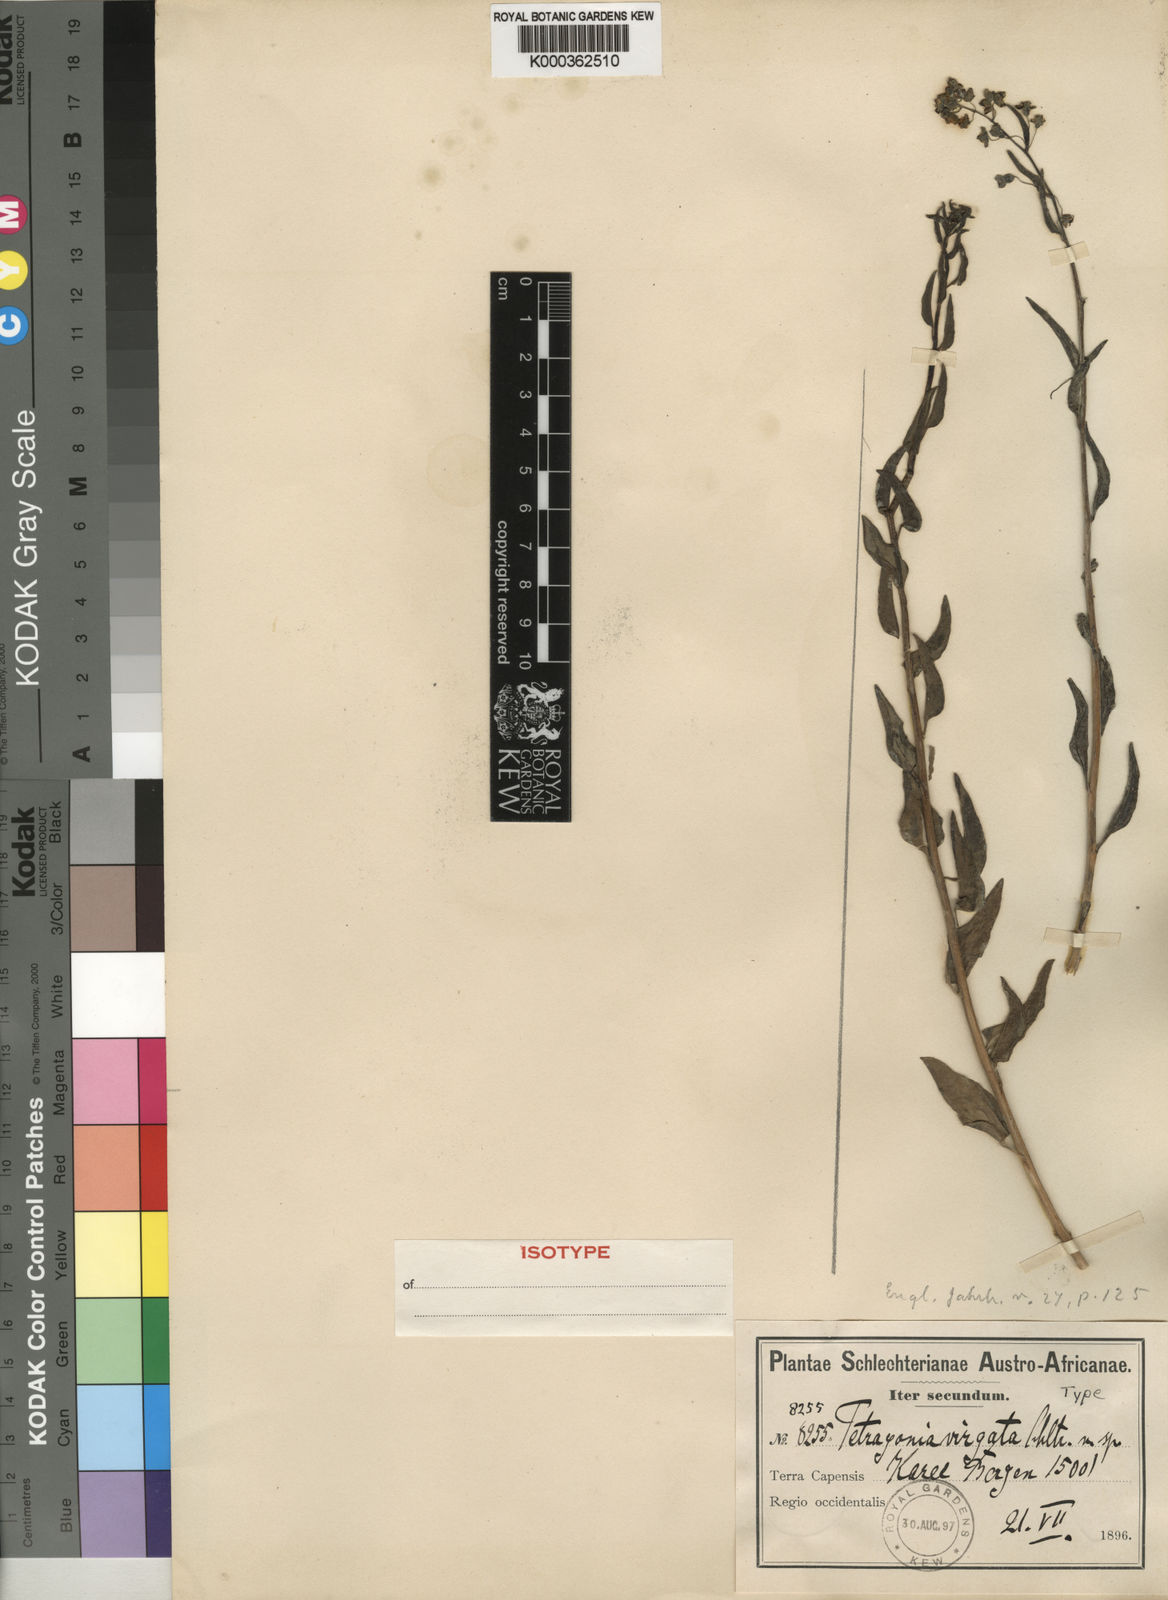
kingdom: Plantae
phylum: Tracheophyta
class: Magnoliopsida
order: Caryophyllales
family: Aizoaceae
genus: Tetragonia
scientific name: Tetragonia virgata
